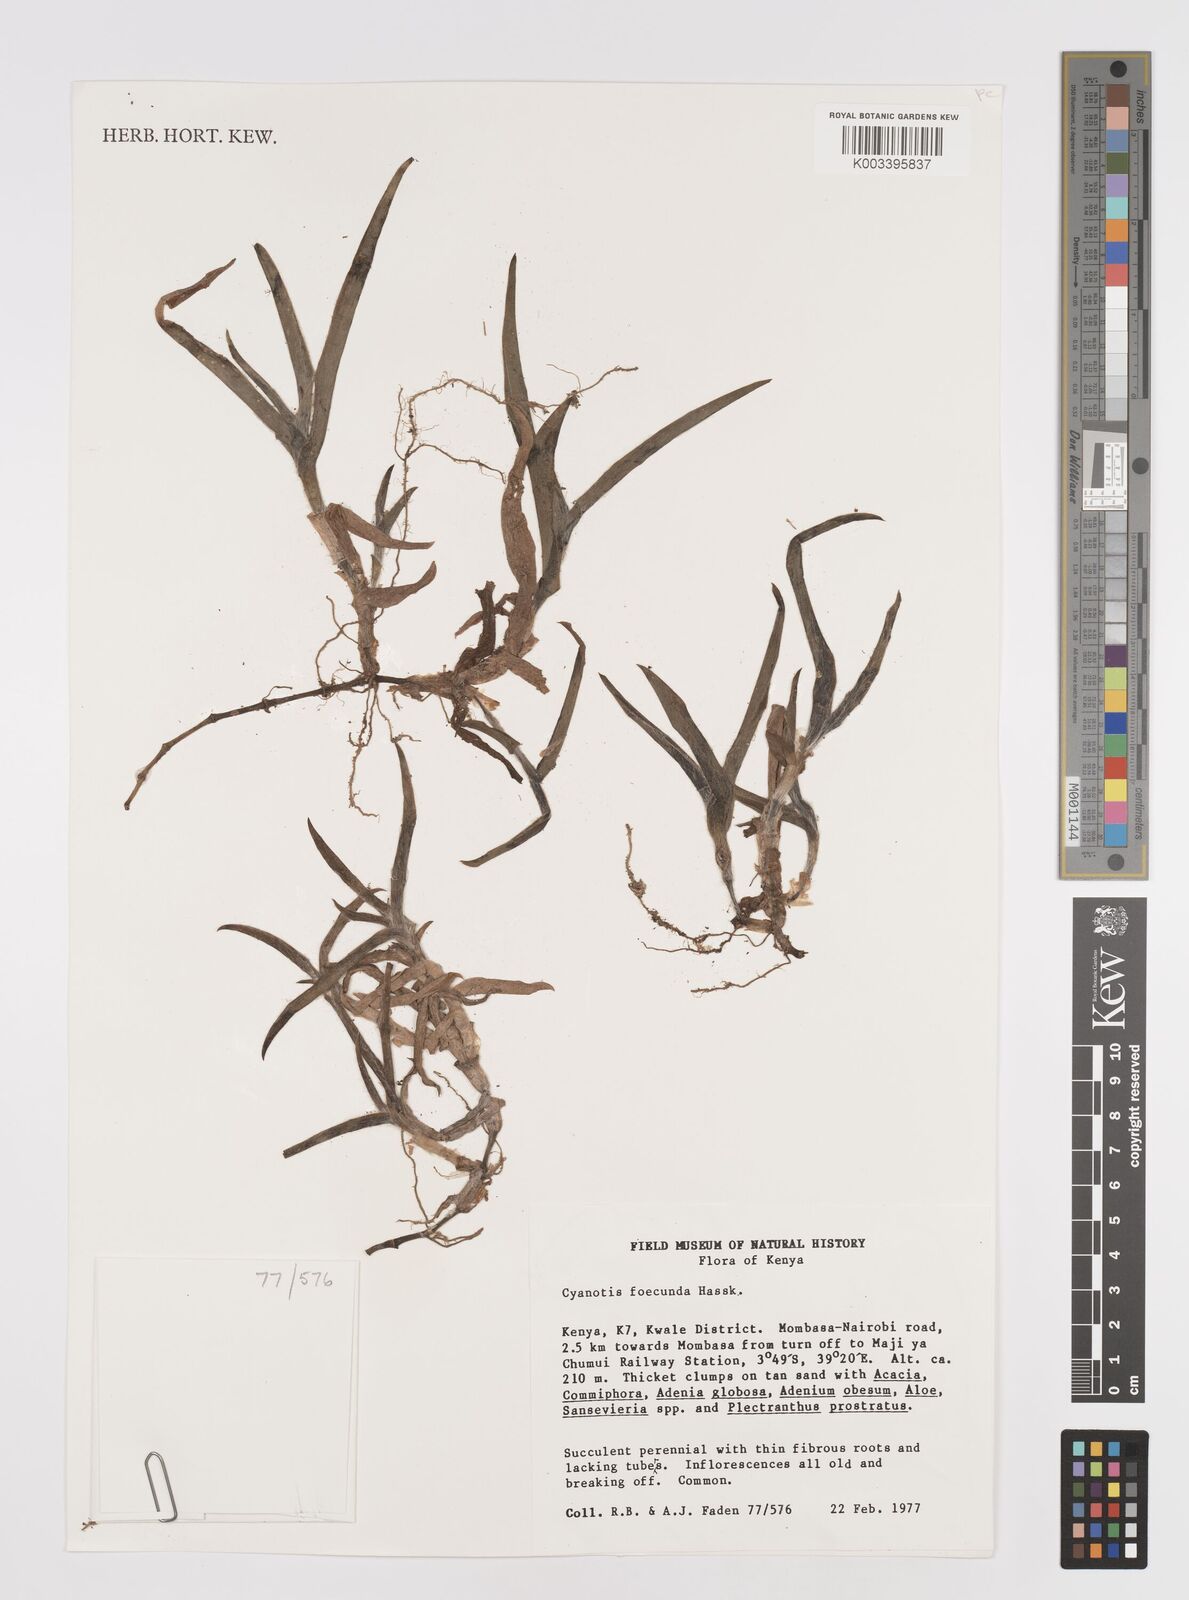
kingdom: Plantae
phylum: Tracheophyta
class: Liliopsida
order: Commelinales
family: Commelinaceae
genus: Cyanotis
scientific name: Cyanotis foecunda
